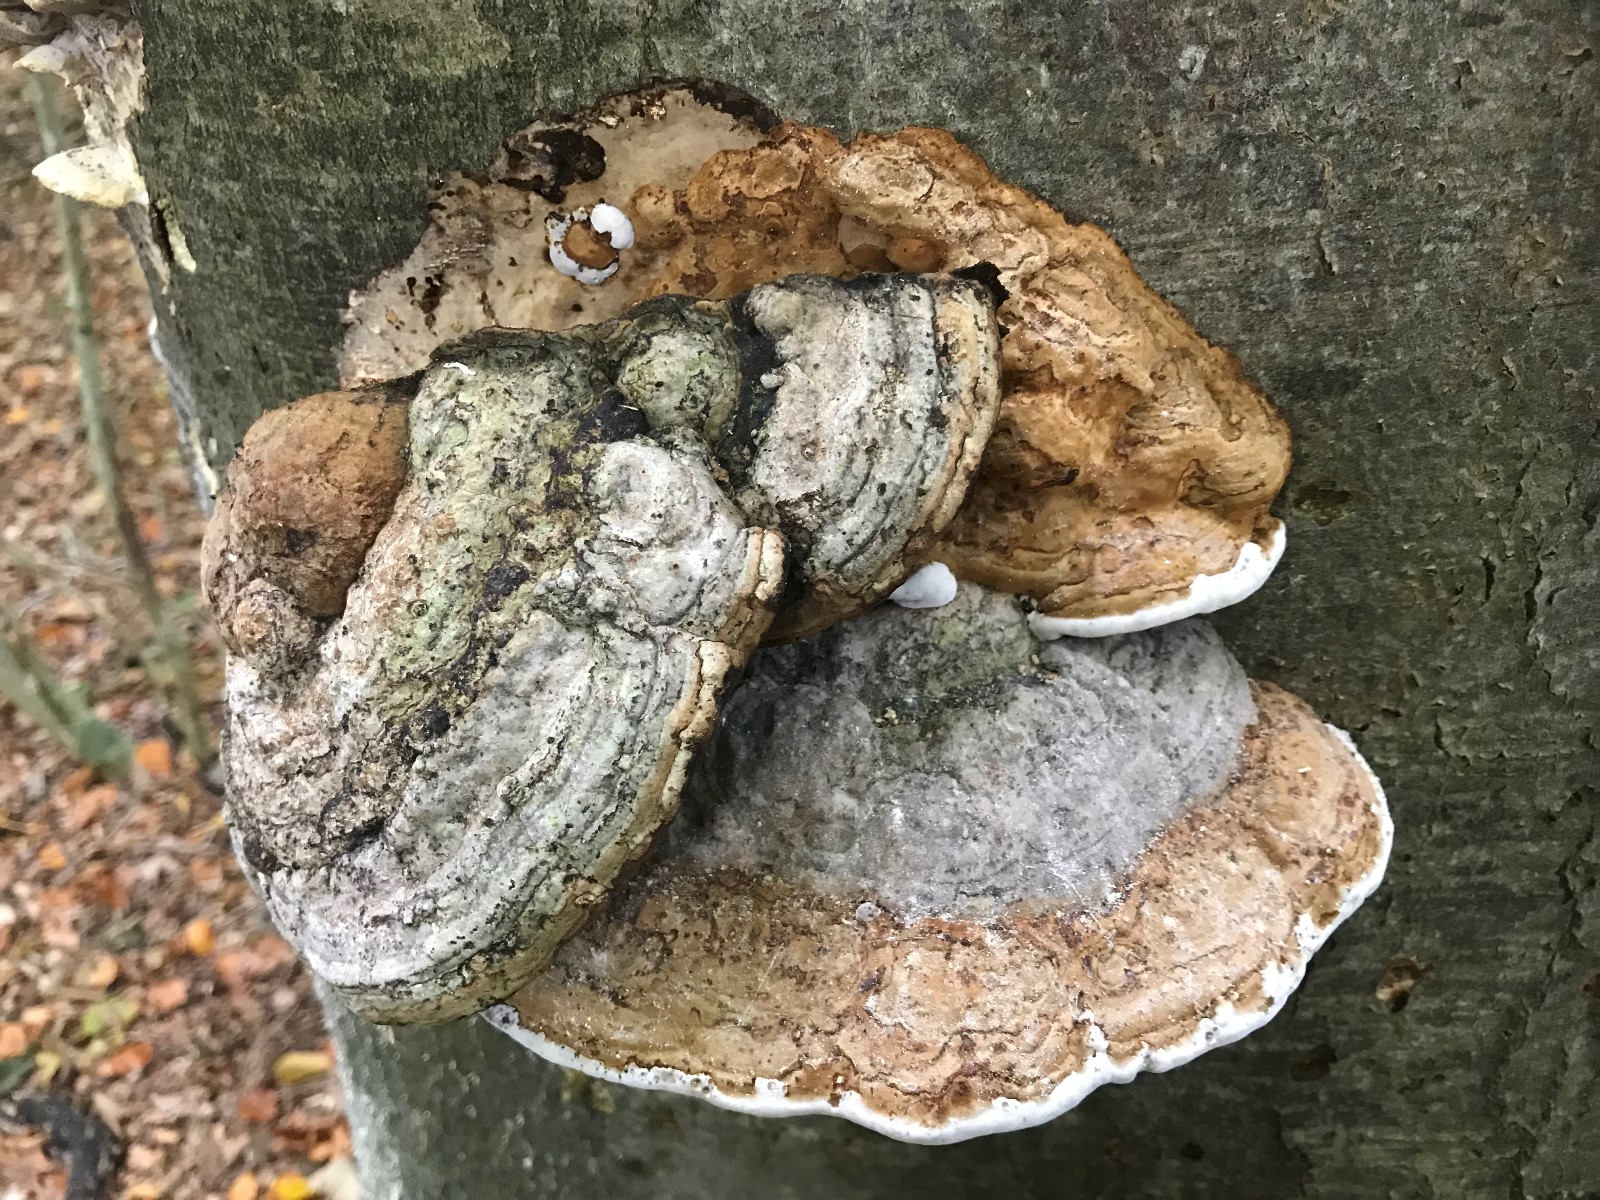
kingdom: Fungi
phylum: Basidiomycota
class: Agaricomycetes
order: Polyporales
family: Polyporaceae
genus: Fomes
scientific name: Fomes fomentarius
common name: tøndersvamp
